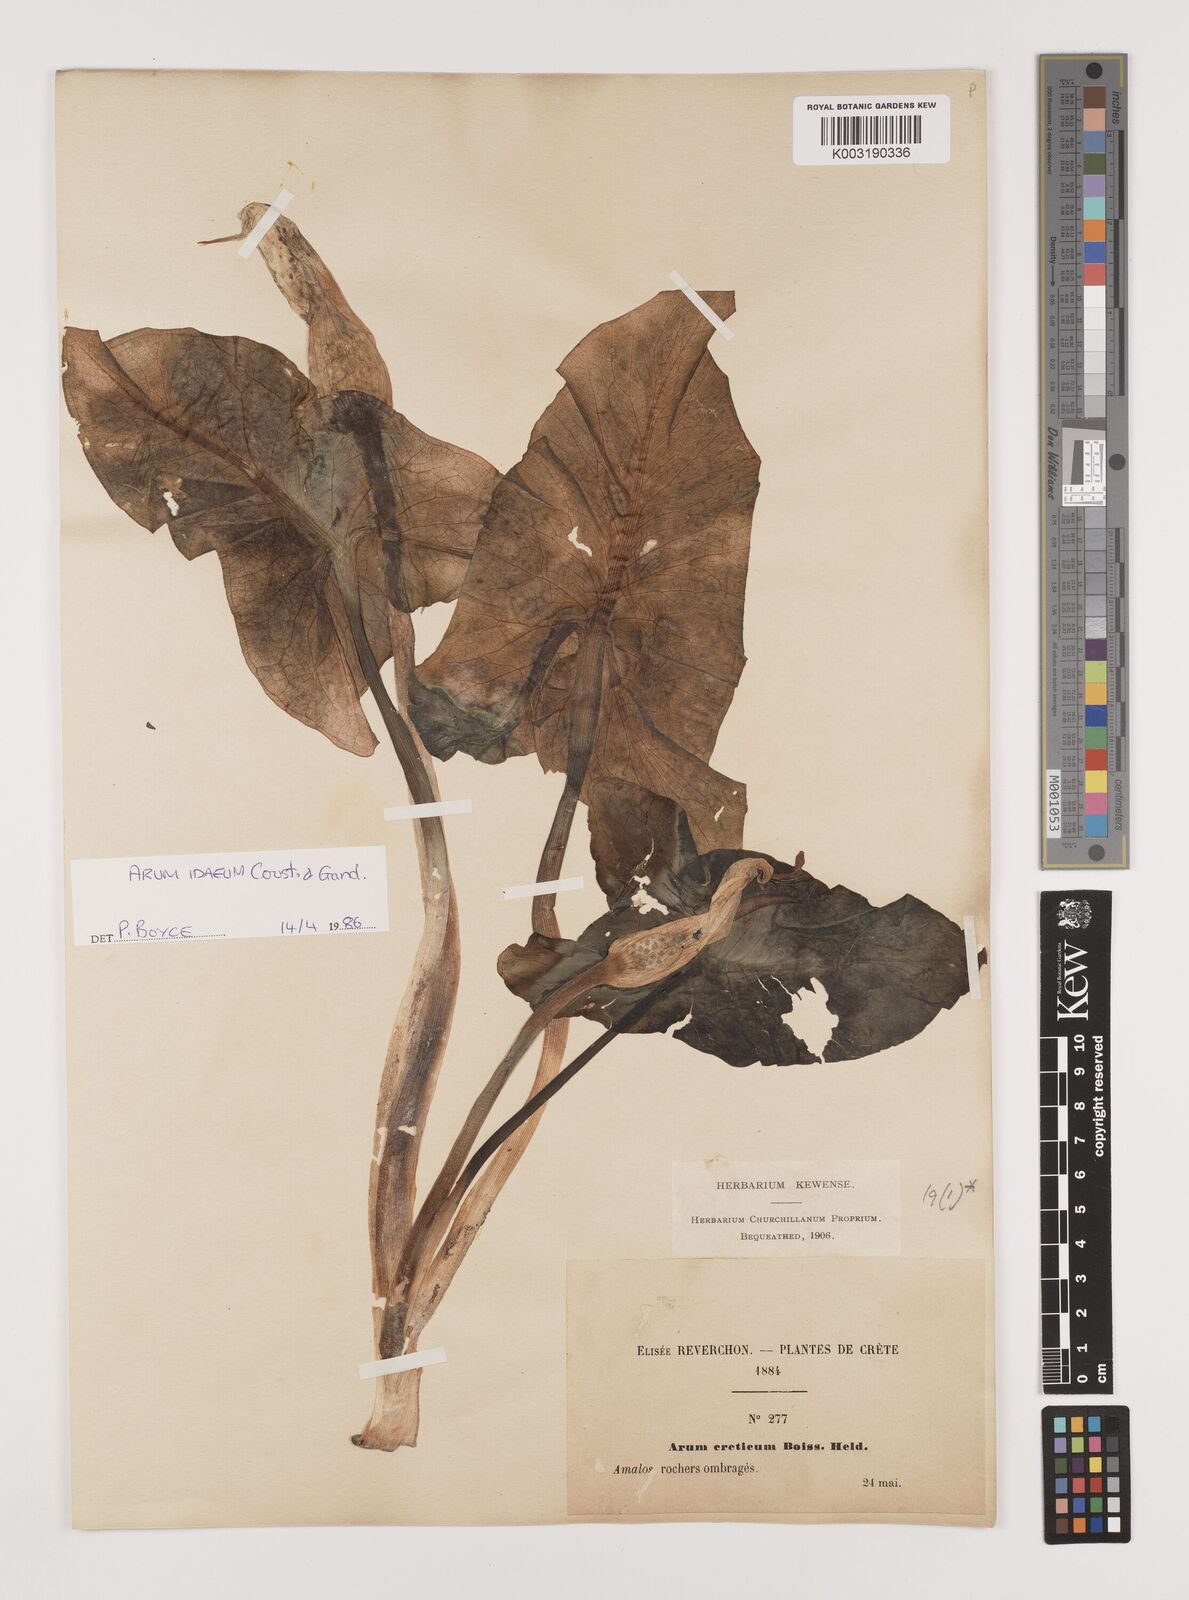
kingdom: Plantae
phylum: Tracheophyta
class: Liliopsida
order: Alismatales
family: Araceae
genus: Arum
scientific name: Arum idaeum
